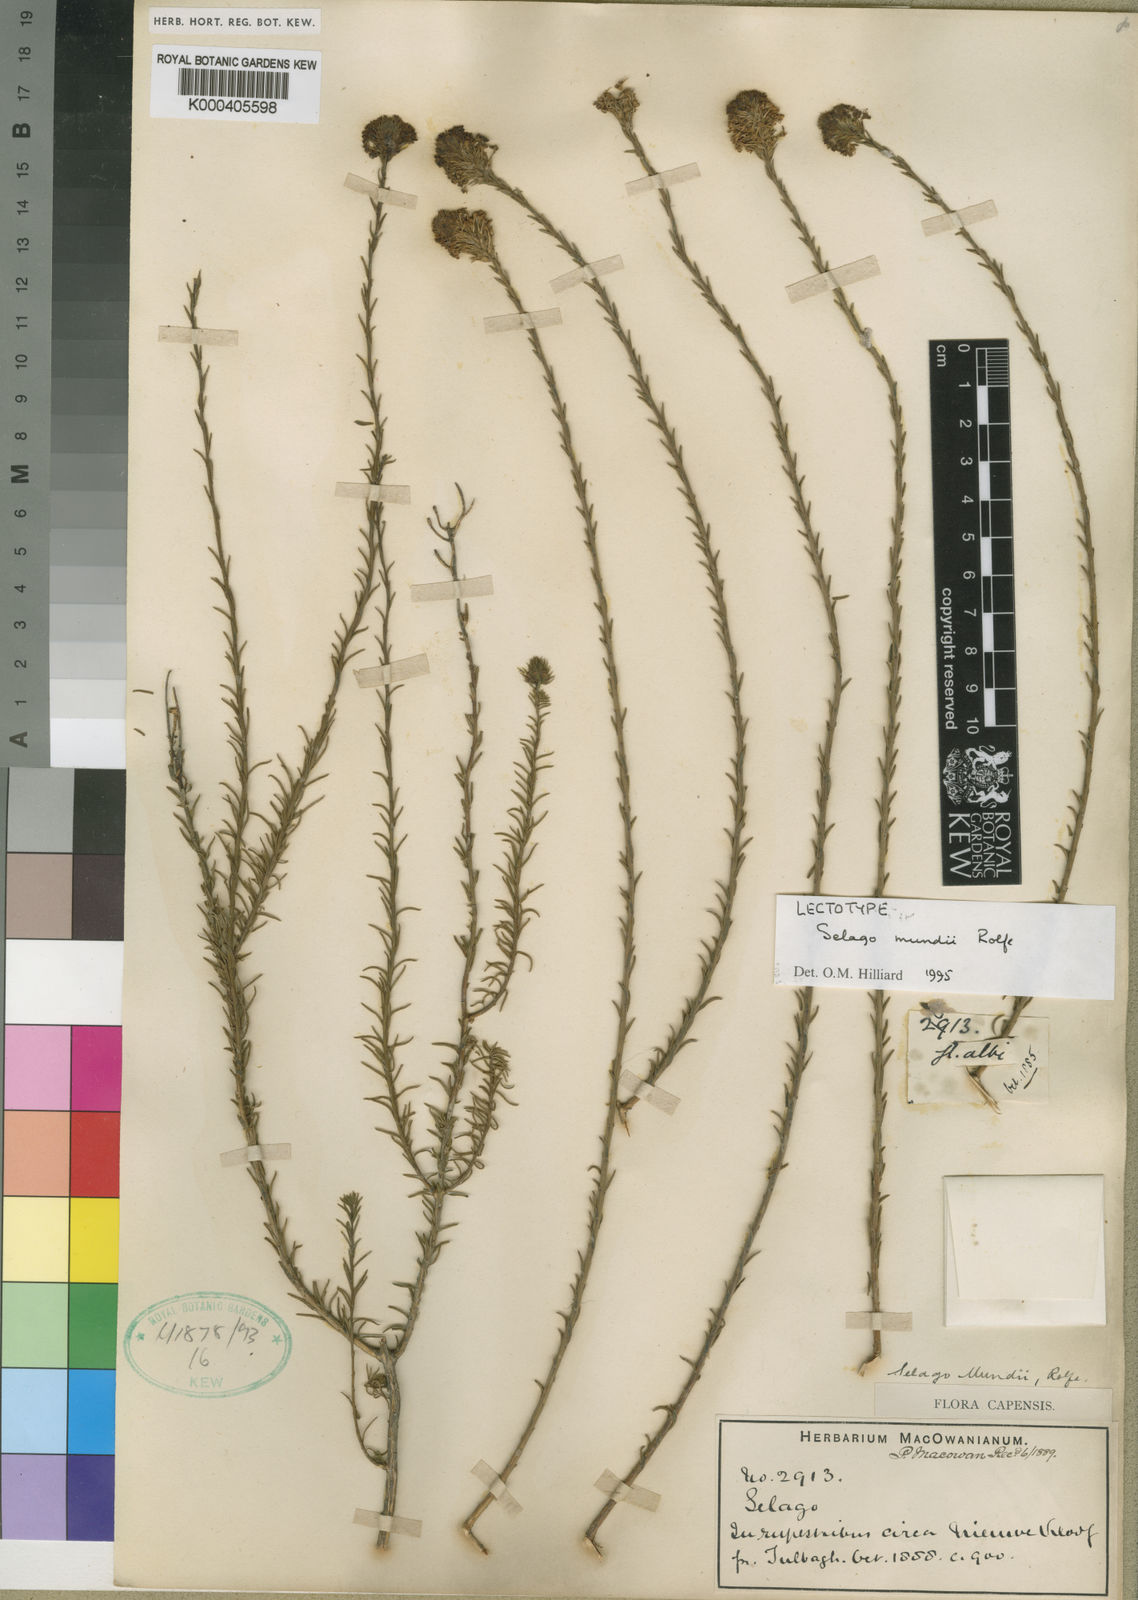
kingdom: Plantae
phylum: Tracheophyta
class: Magnoliopsida
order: Lamiales
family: Scrophulariaceae
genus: Selago
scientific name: Selago mundii
